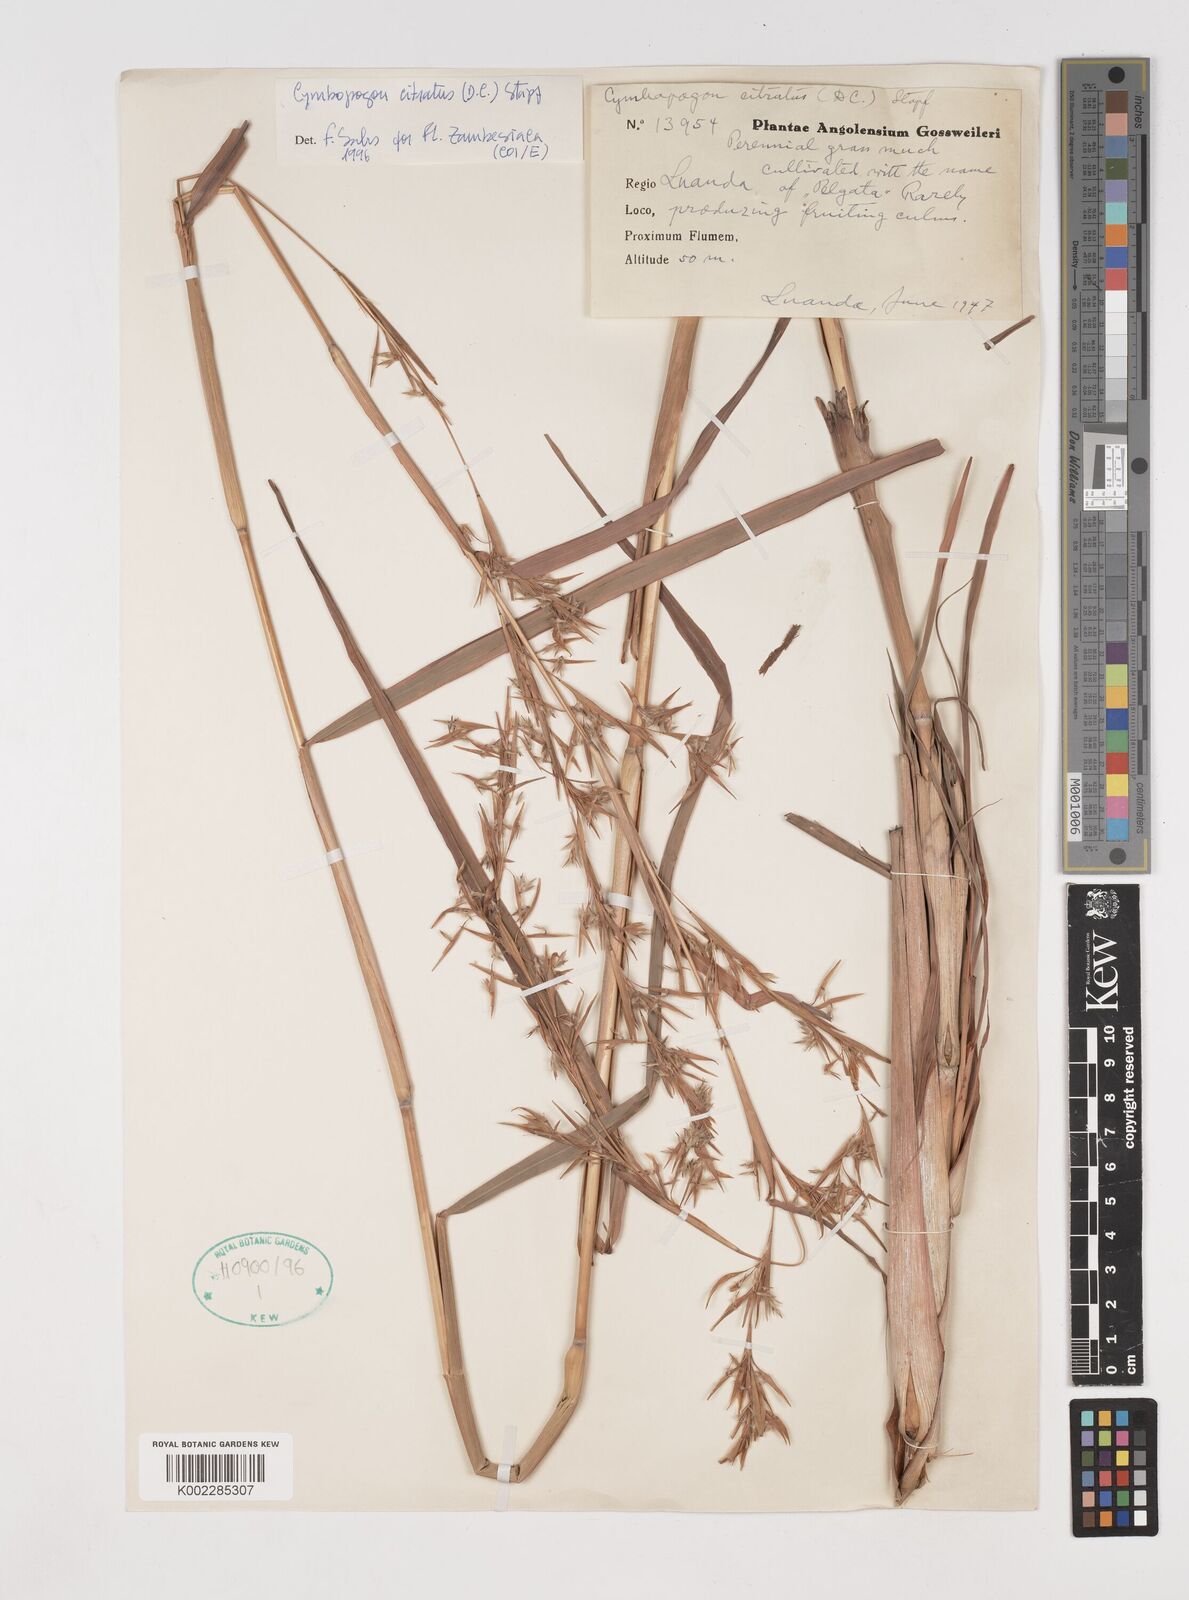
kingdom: Plantae
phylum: Tracheophyta
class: Liliopsida
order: Poales
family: Poaceae
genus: Cymbopogon
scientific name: Cymbopogon citratus
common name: Lemon grass
